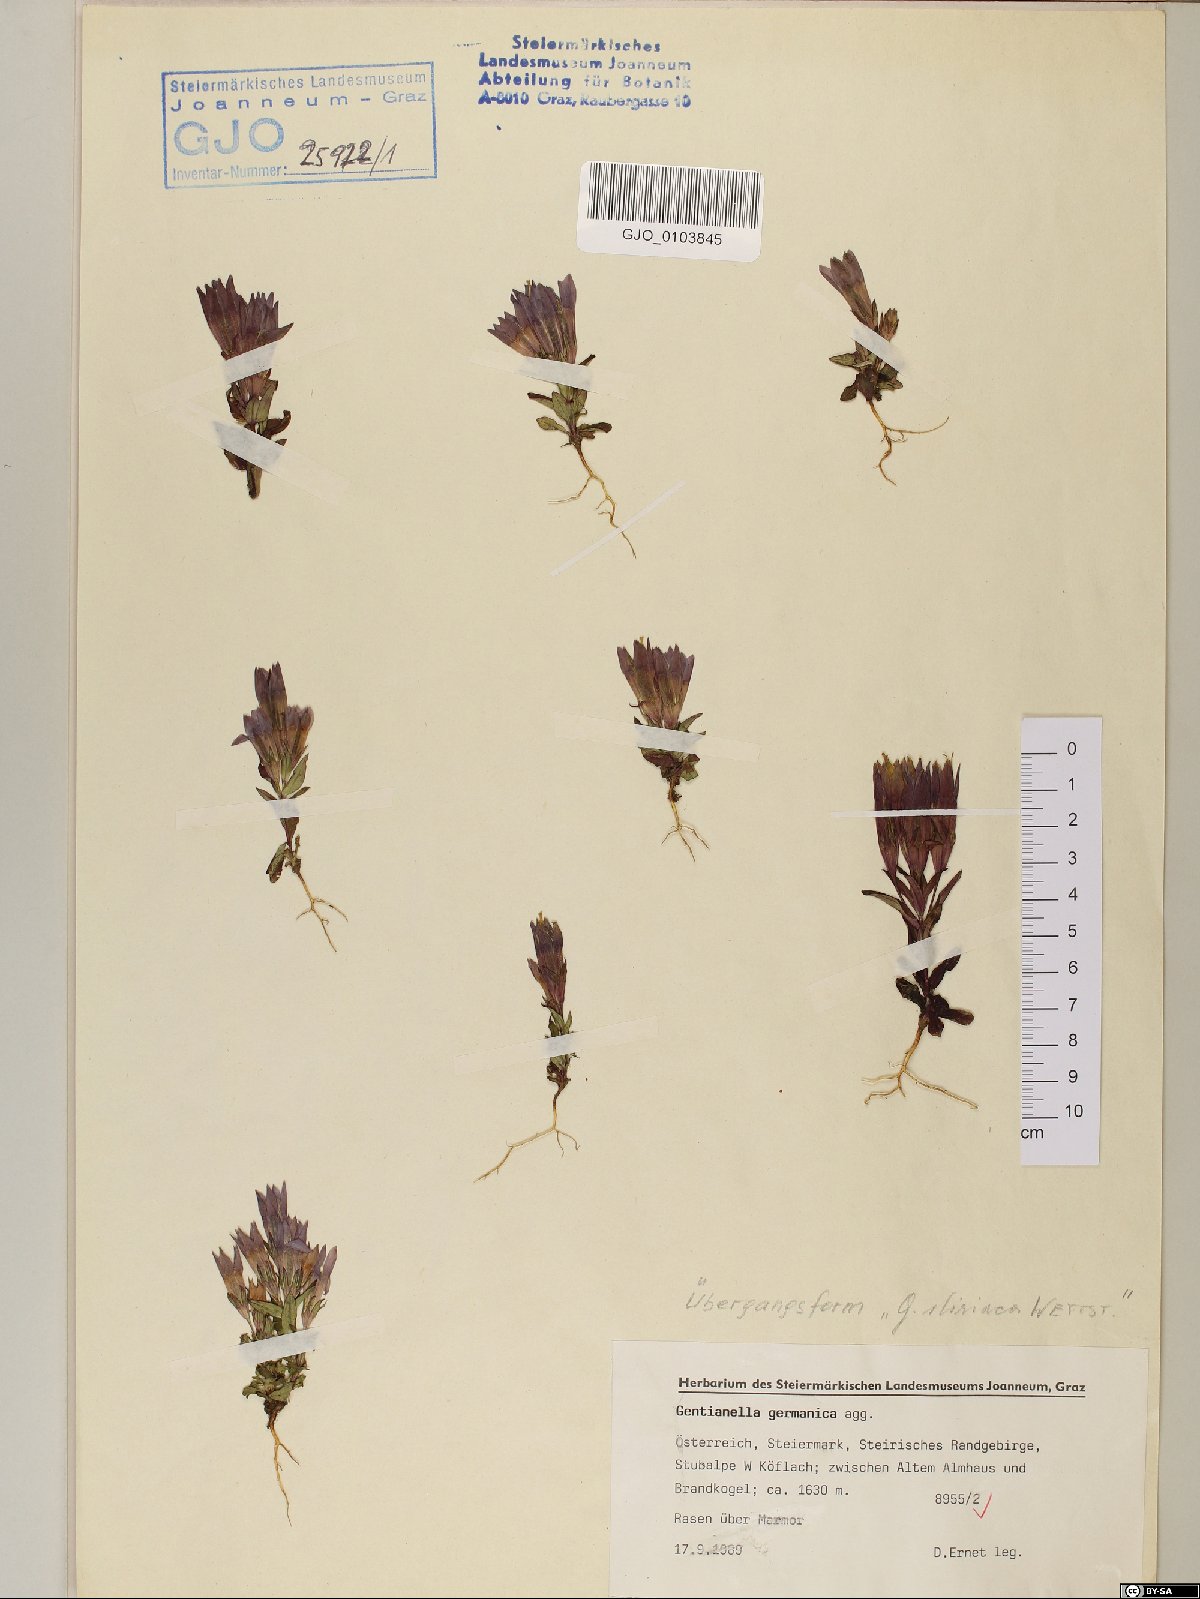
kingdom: Plantae
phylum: Tracheophyta
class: Magnoliopsida
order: Gentianales
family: Gentianaceae
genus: Gentianella
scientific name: Gentianella germanica
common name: Chiltern-gentian
